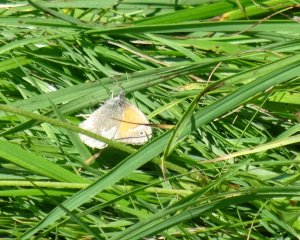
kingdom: Animalia
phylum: Arthropoda
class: Insecta
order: Lepidoptera
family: Nymphalidae
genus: Coenonympha
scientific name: Coenonympha tullia
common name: Large Heath
